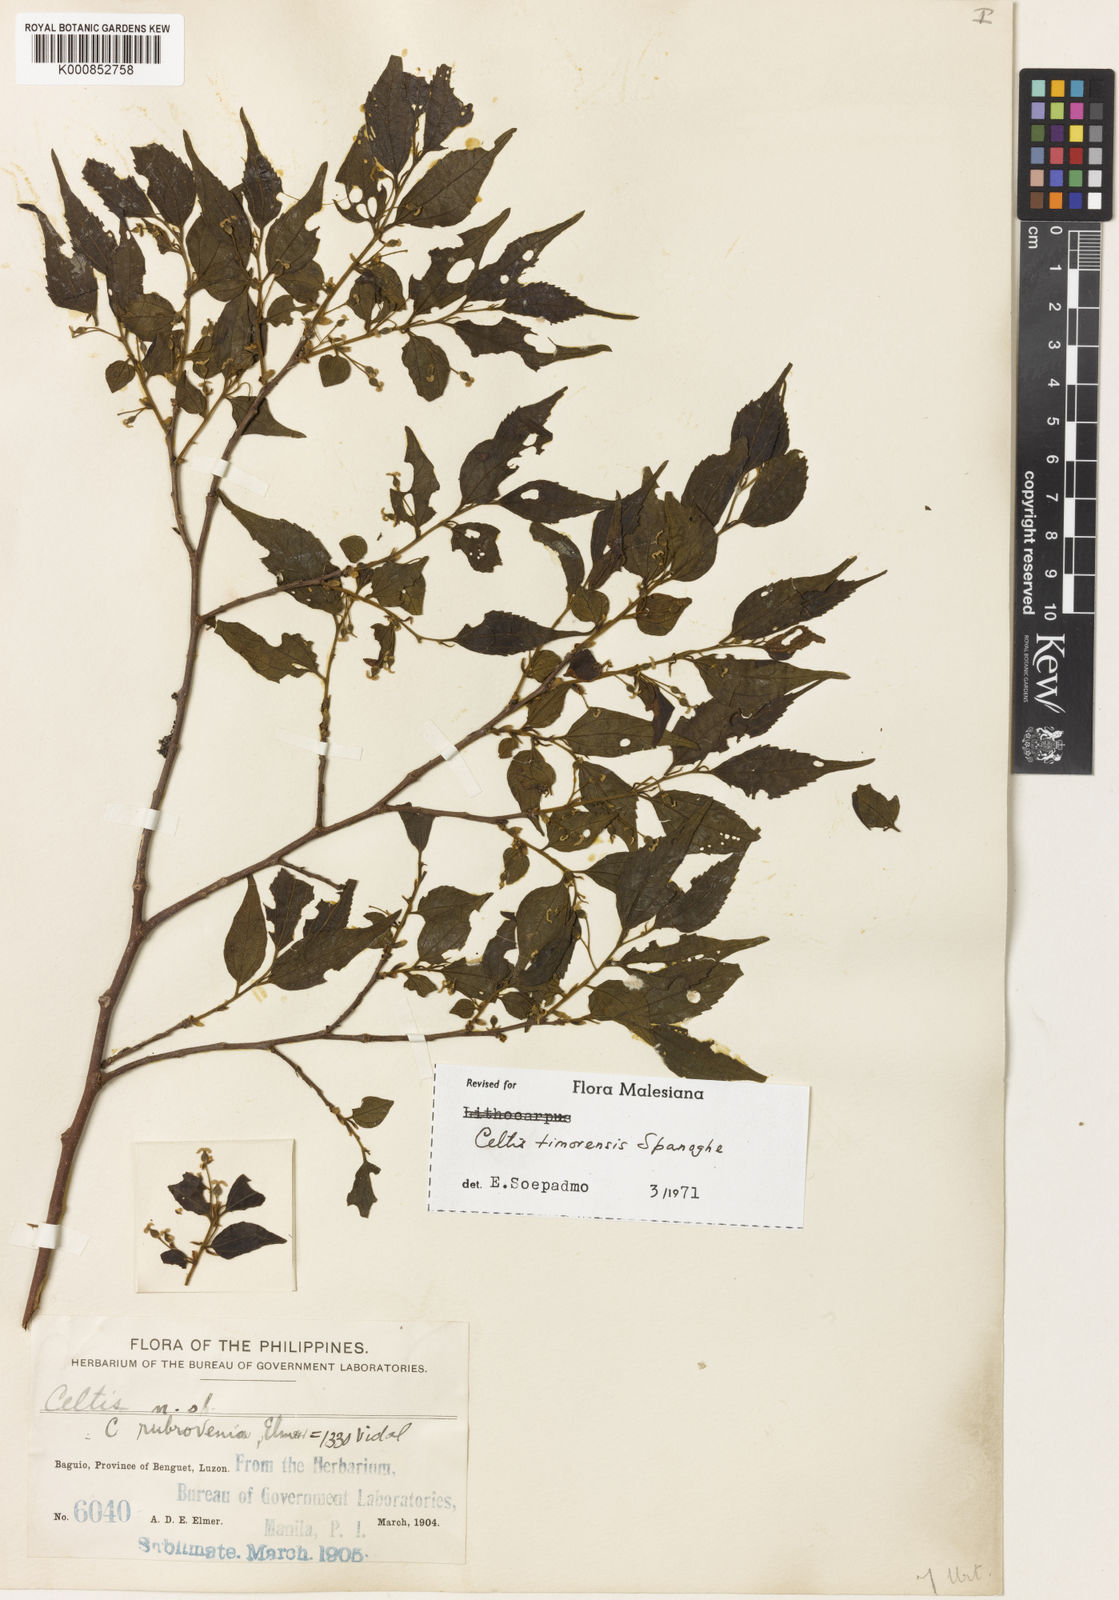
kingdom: Plantae
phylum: Tracheophyta
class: Magnoliopsida
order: Rosales
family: Cannabaceae
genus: Celtis
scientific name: Celtis rubrovenia
